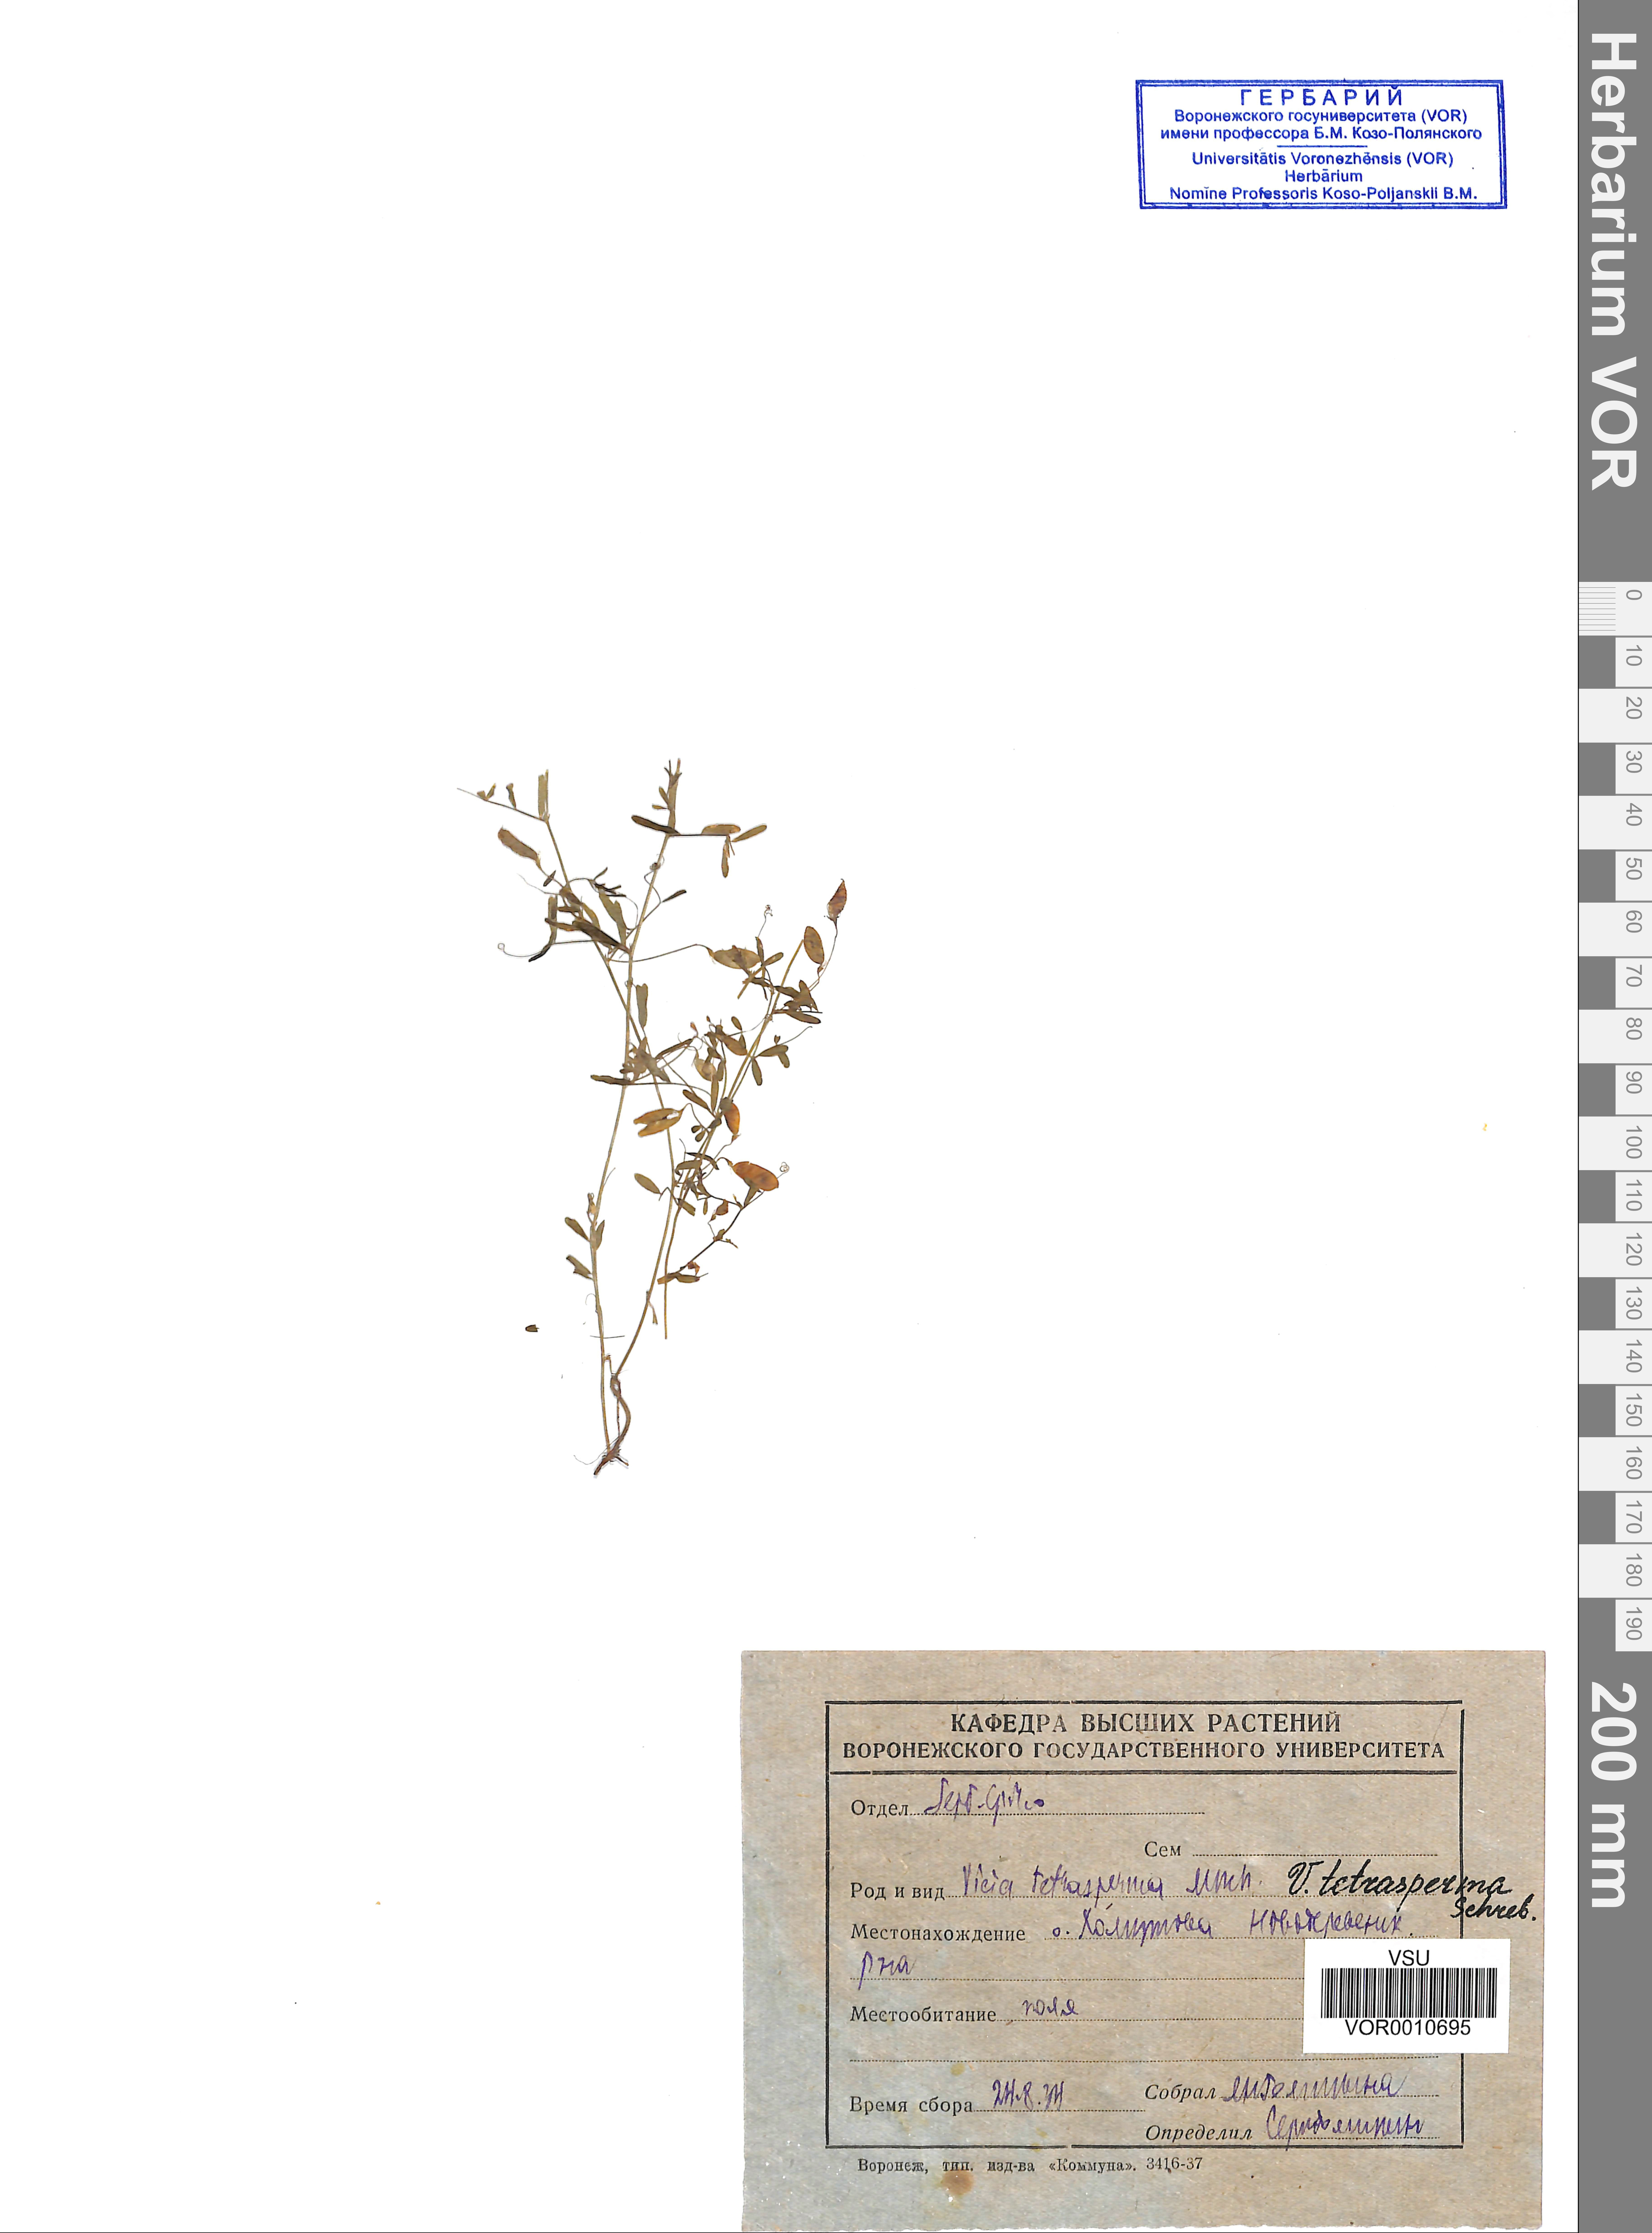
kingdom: Plantae
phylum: Tracheophyta
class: Magnoliopsida
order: Fabales
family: Fabaceae
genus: Vicia
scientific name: Vicia tetrasperma
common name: Smooth tare
